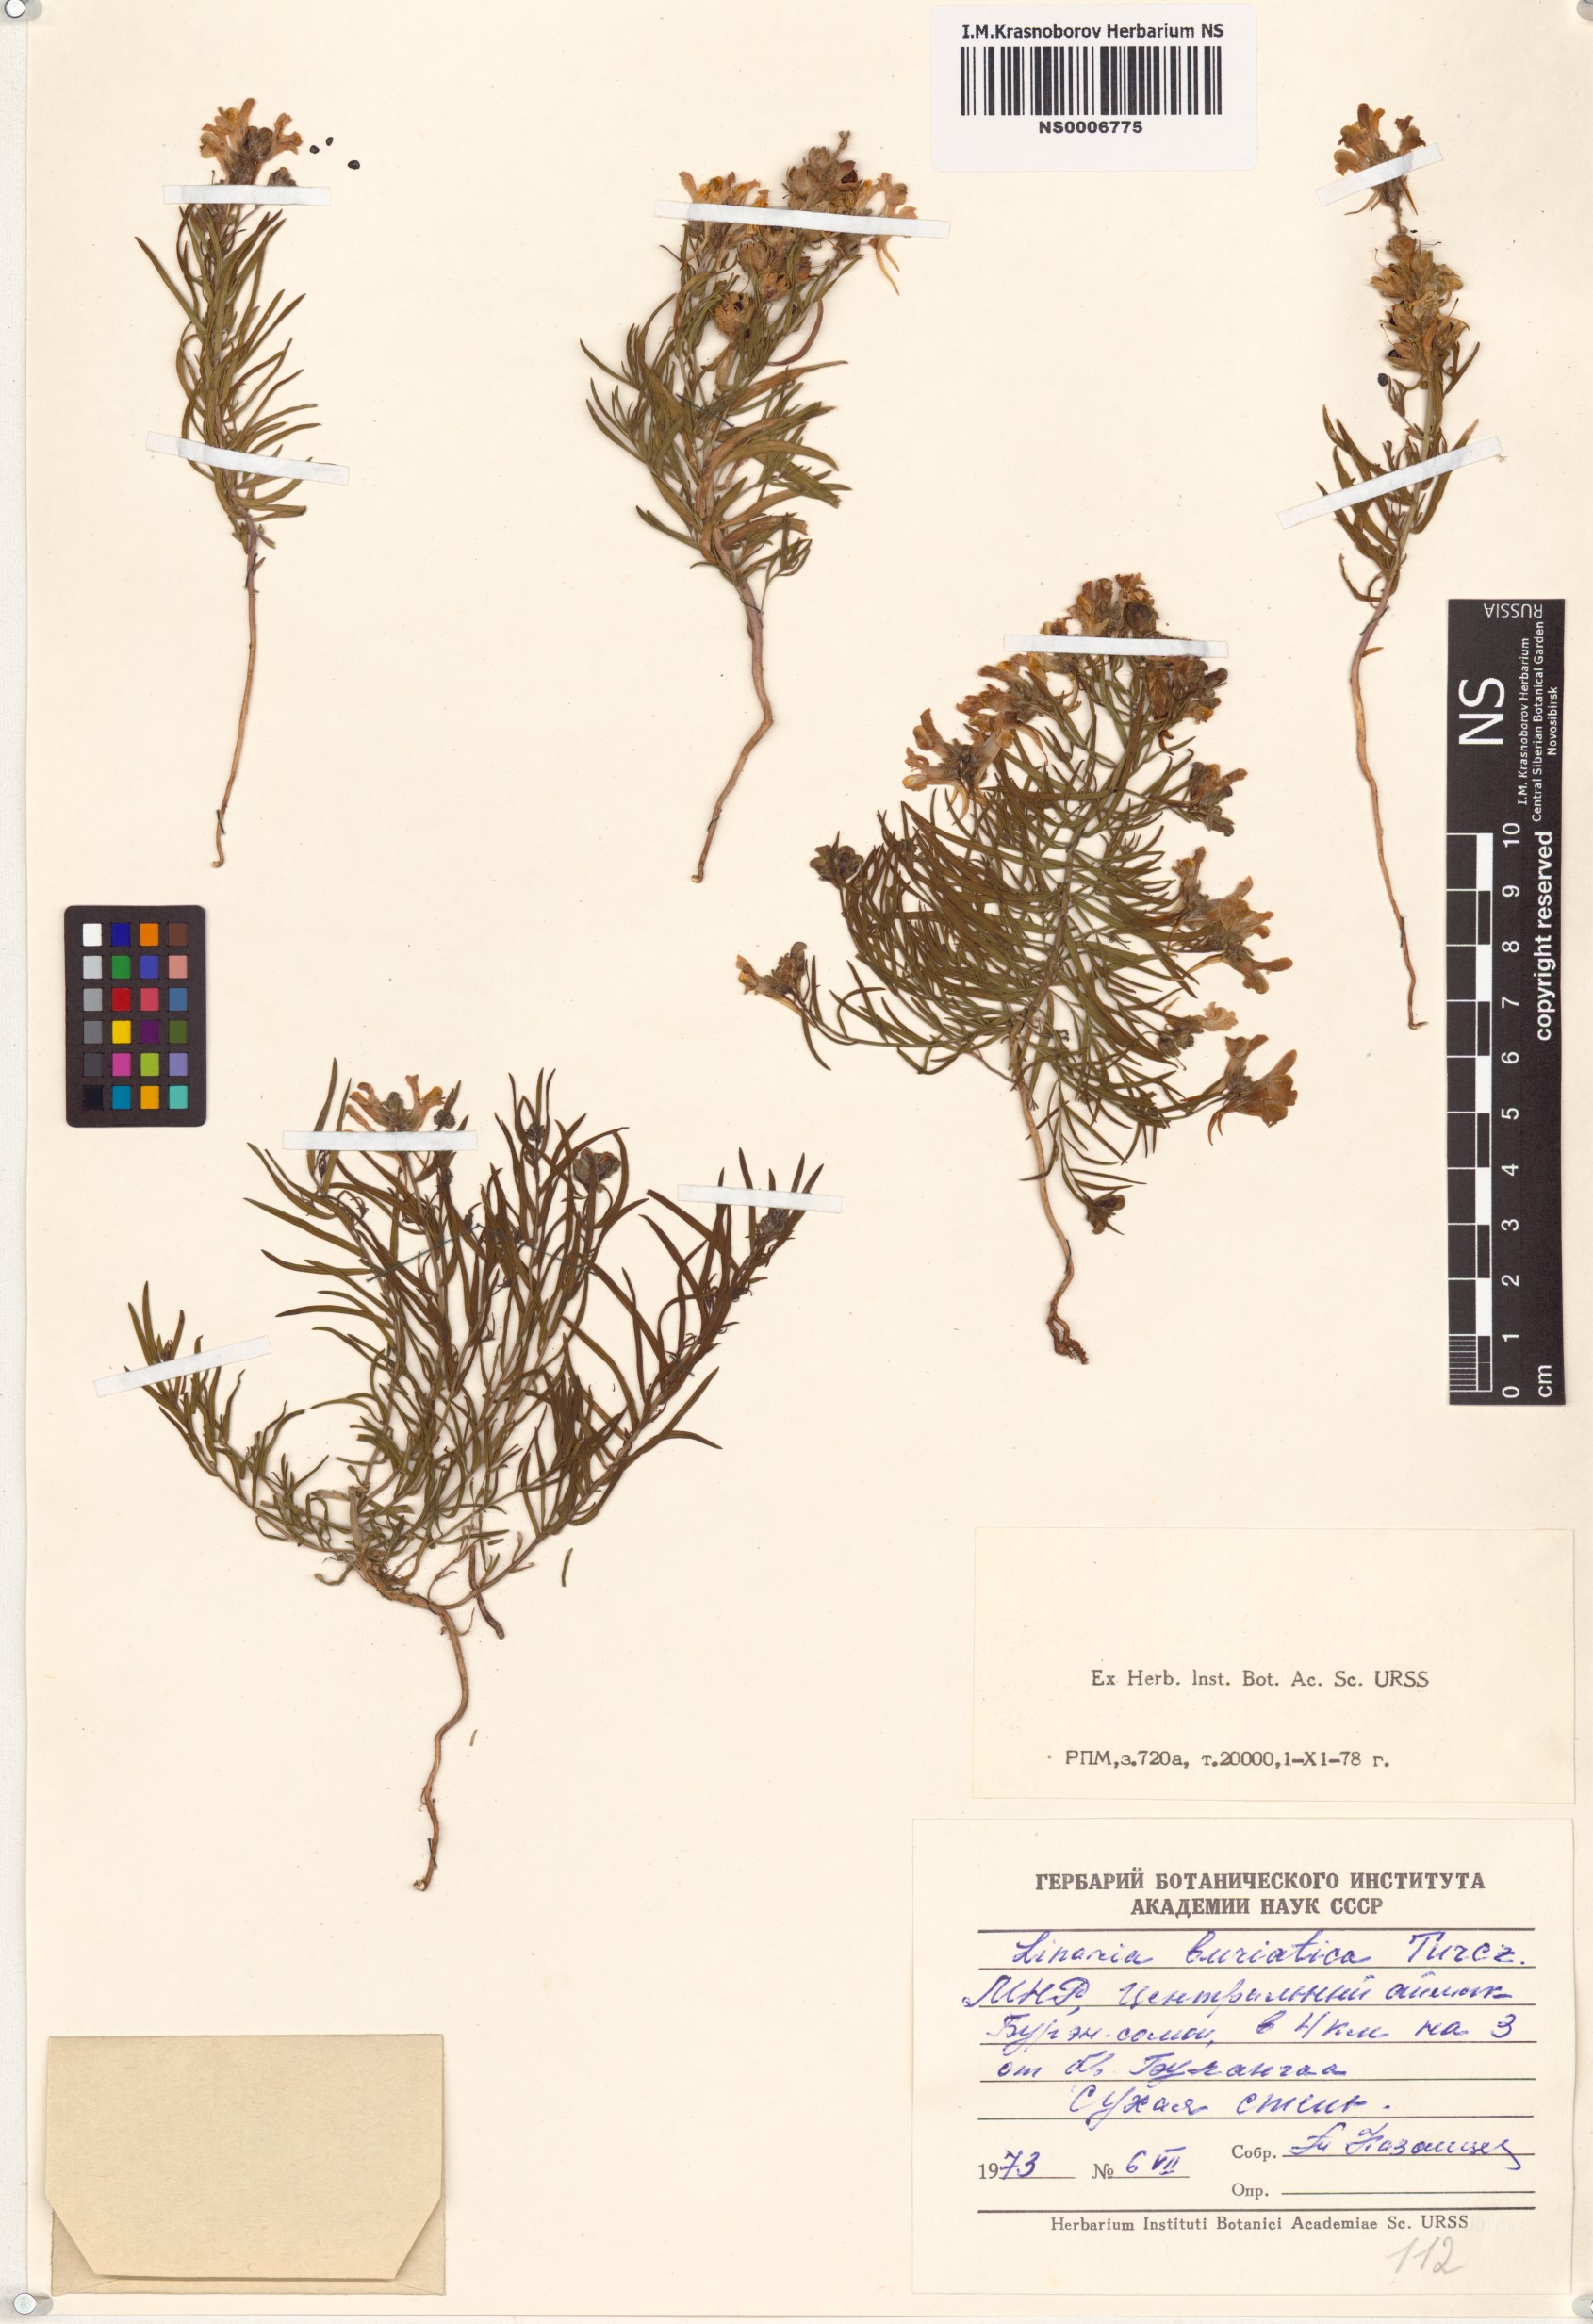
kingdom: Plantae
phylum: Tracheophyta
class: Magnoliopsida
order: Lamiales
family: Plantaginaceae
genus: Linaria
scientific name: Linaria buriatica
